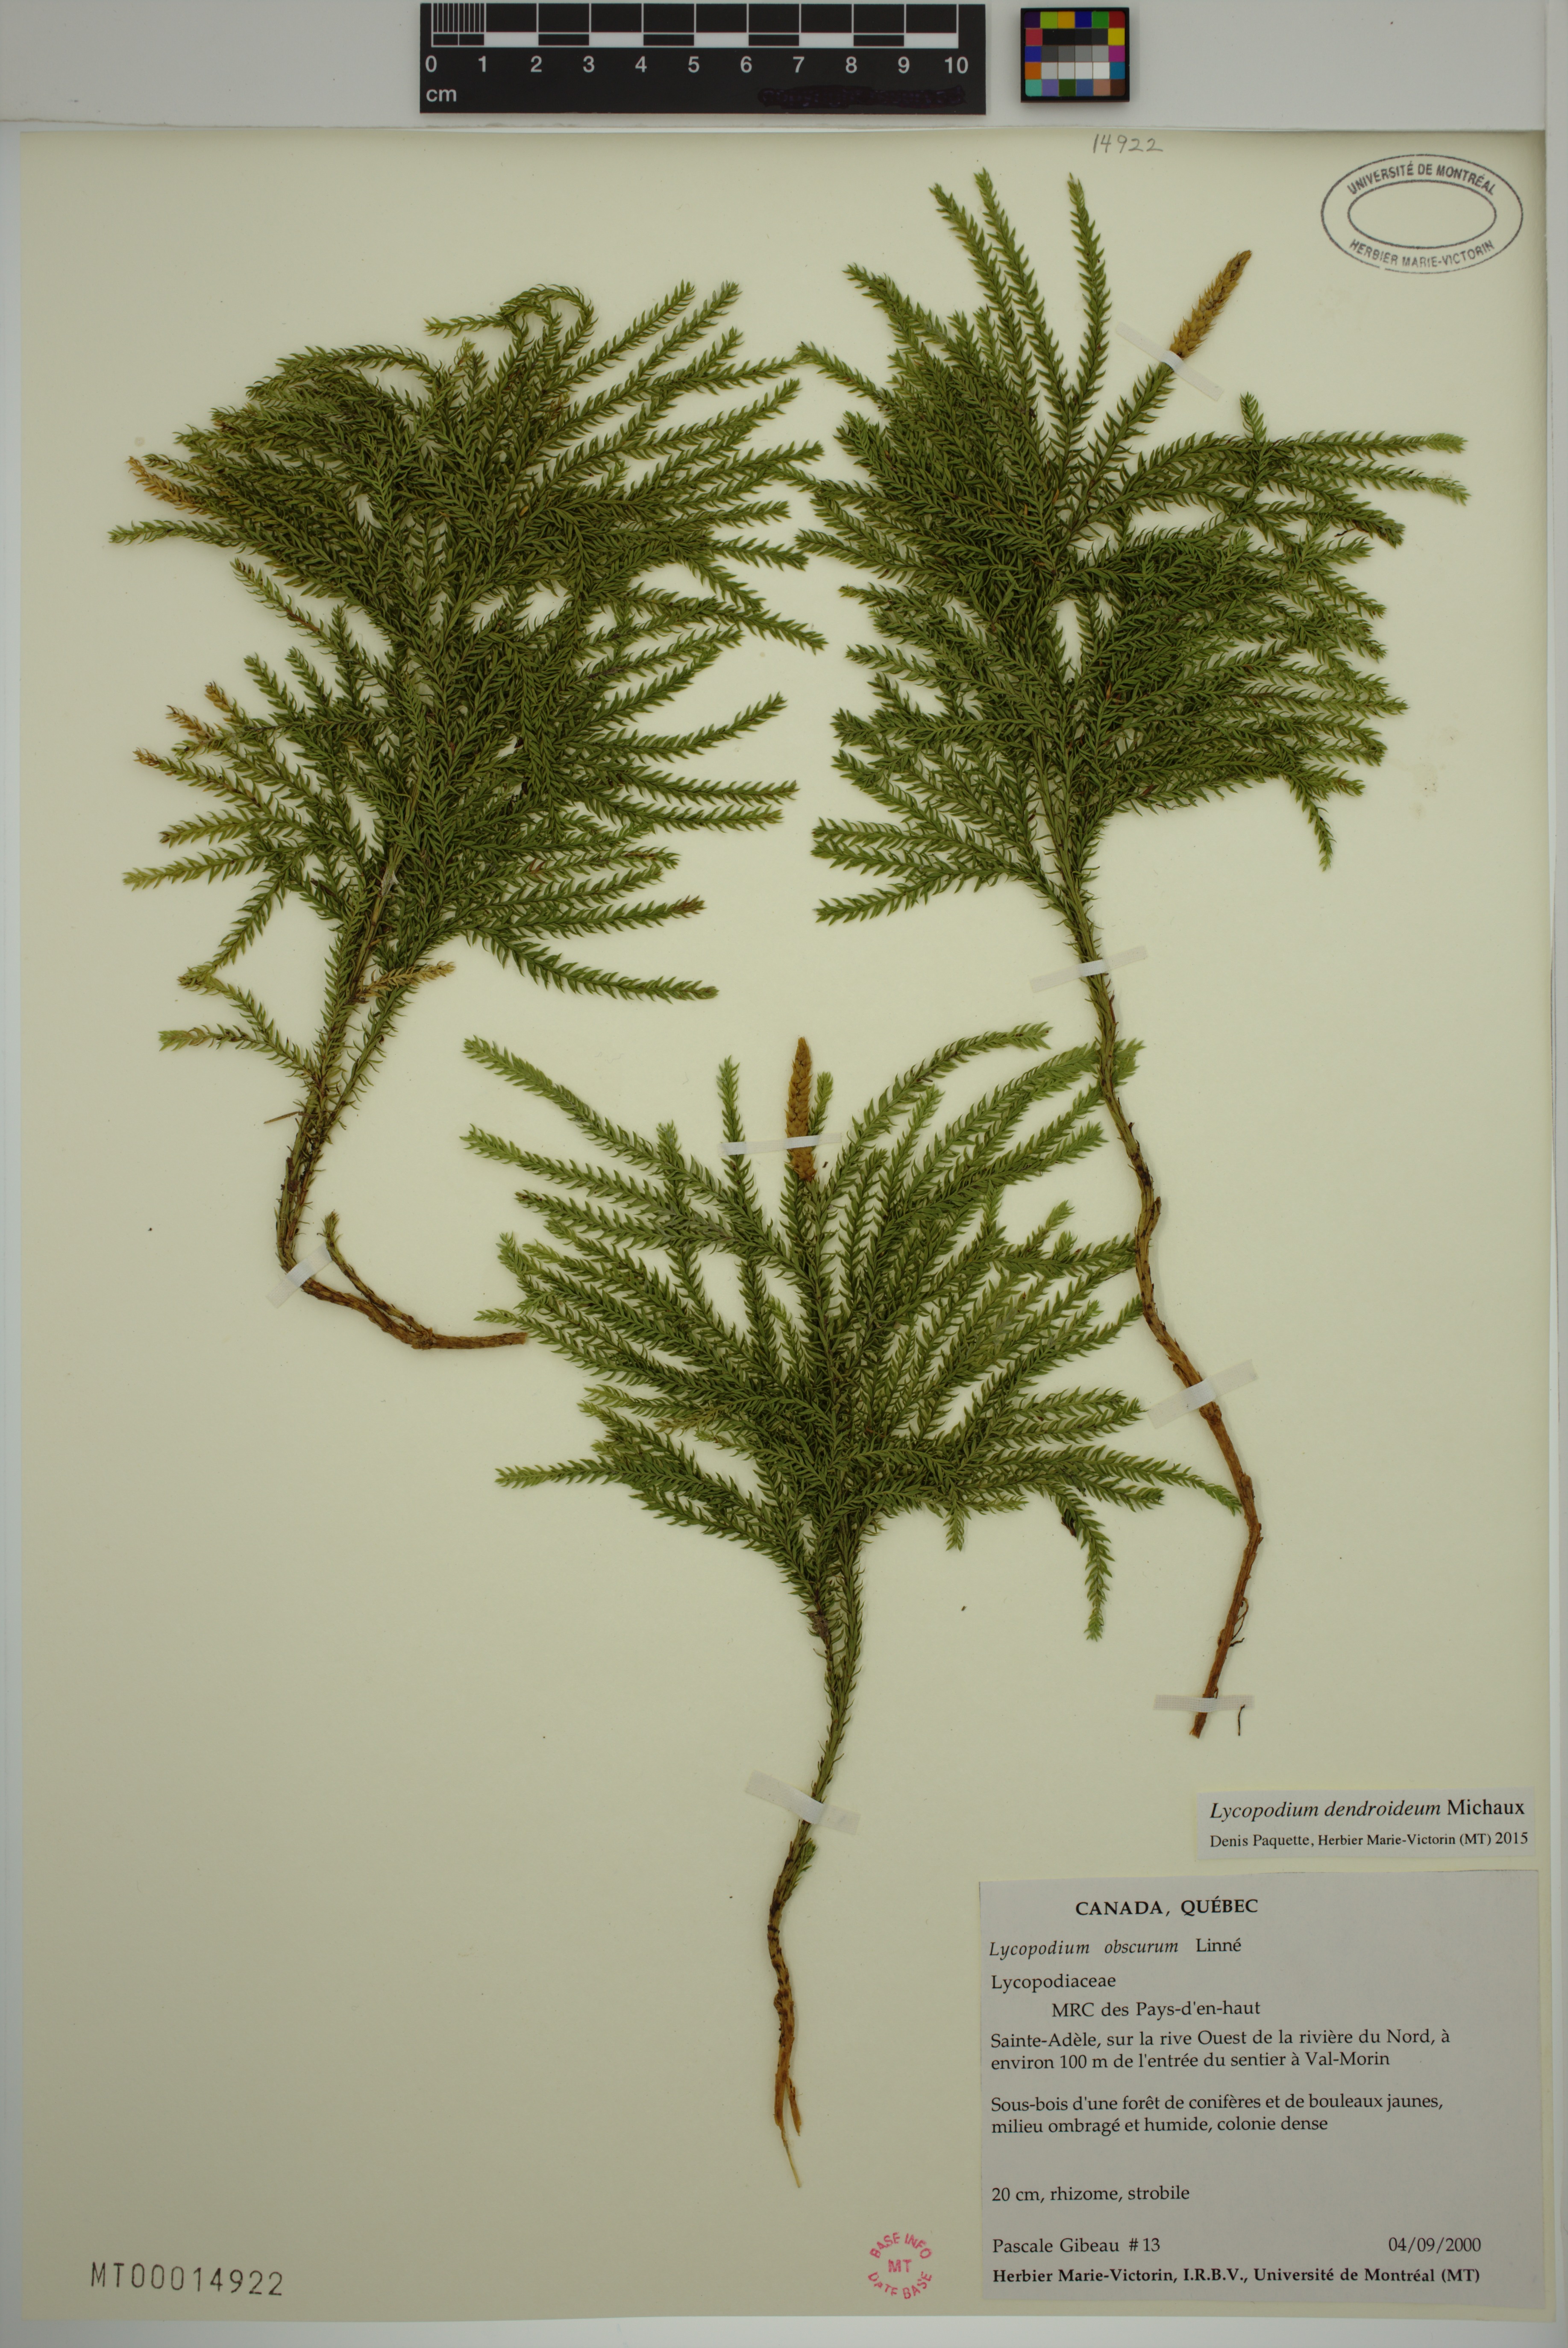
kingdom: Plantae
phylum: Tracheophyta
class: Lycopodiopsida
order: Lycopodiales
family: Lycopodiaceae
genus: Dendrolycopodium
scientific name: Dendrolycopodium dendroideum
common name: Northern tree-clubmoss
